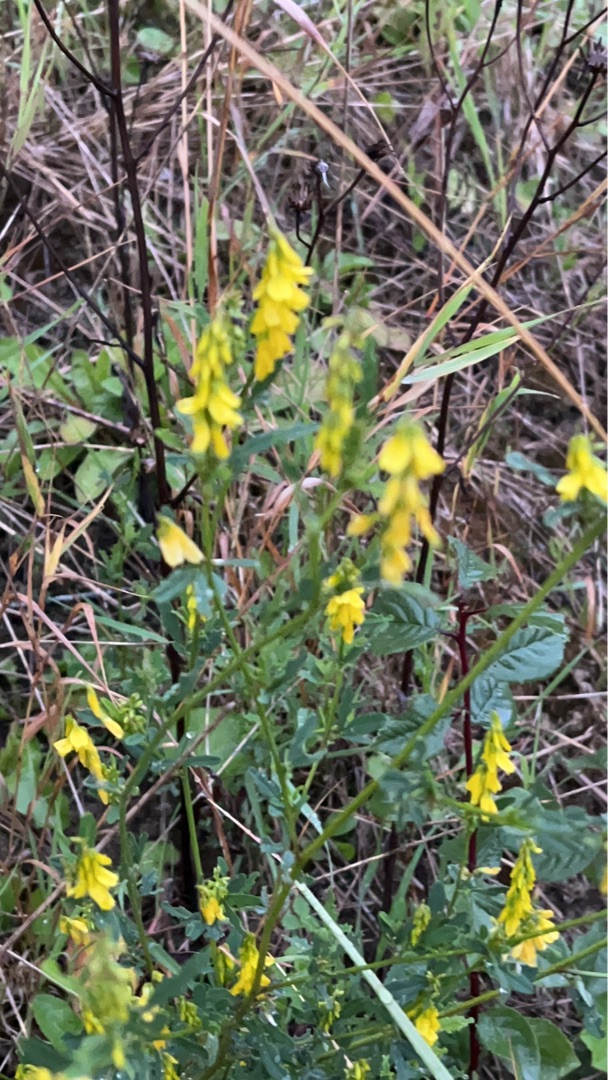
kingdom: Plantae
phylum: Tracheophyta
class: Magnoliopsida
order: Fabales
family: Fabaceae
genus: Melilotus
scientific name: Melilotus
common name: Stenkløverslægten
